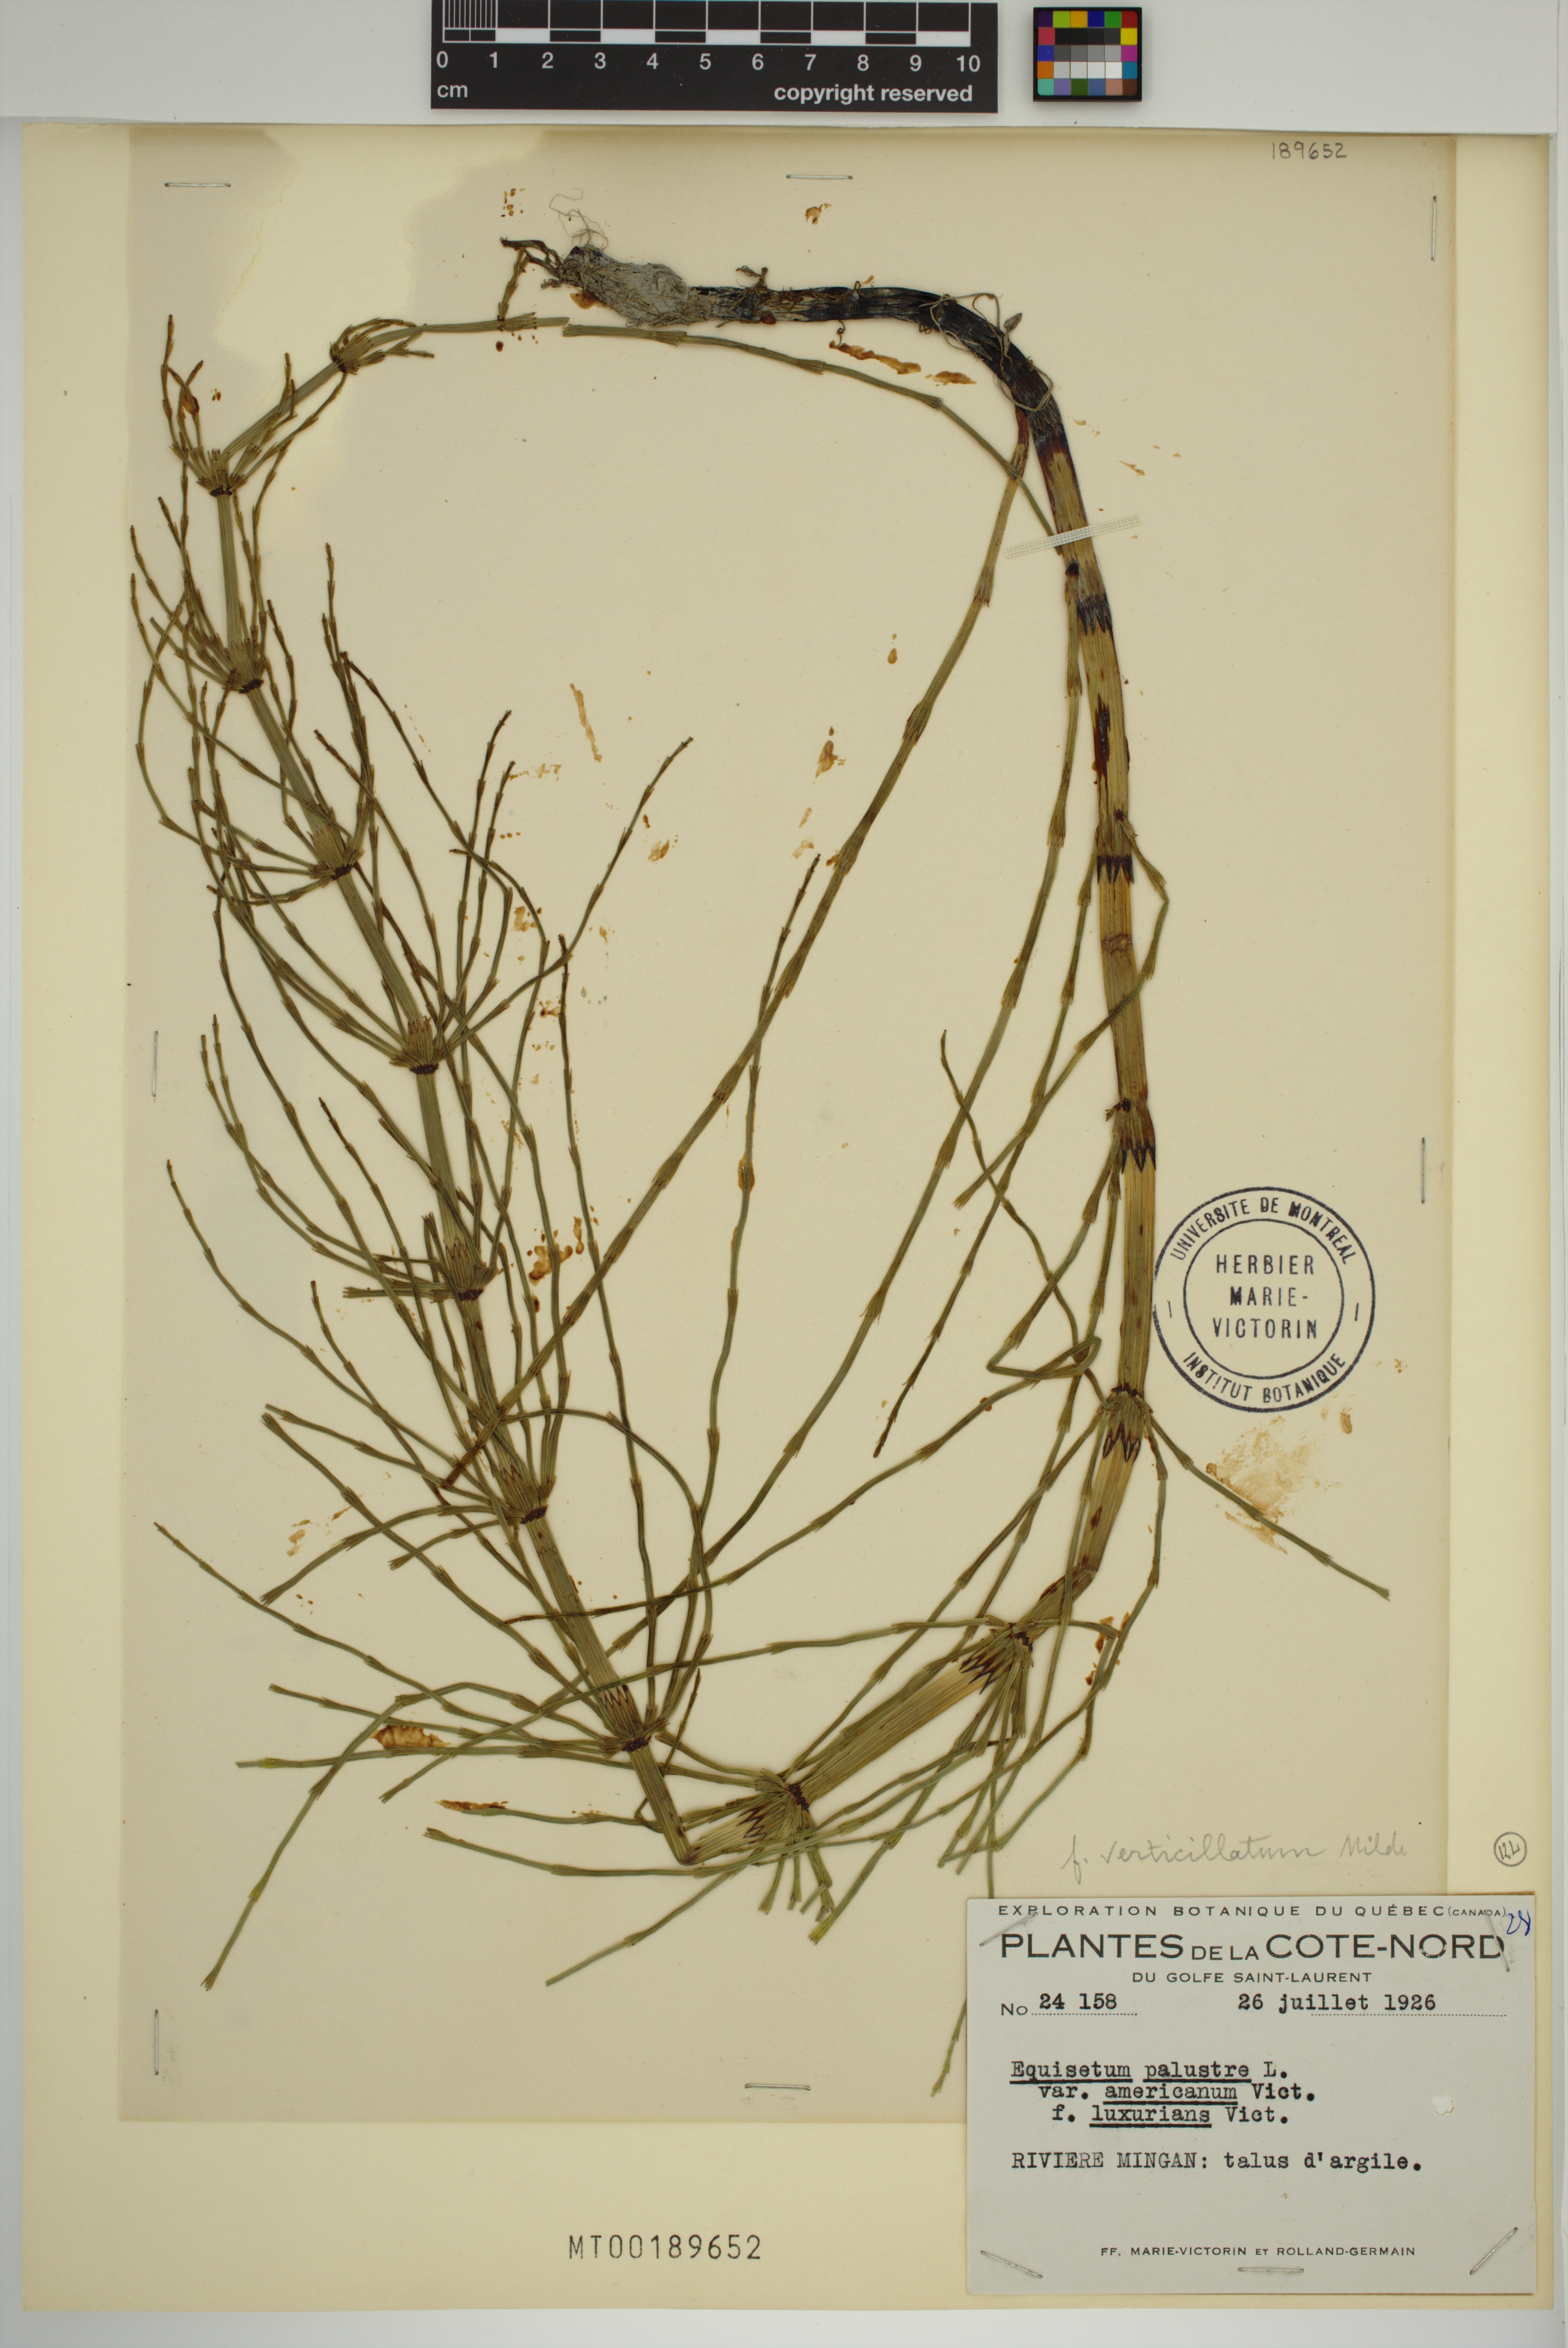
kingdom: Plantae
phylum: Tracheophyta
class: Polypodiopsida
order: Equisetales
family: Equisetaceae
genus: Equisetum
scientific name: Equisetum palustre
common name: Marsh horsetail
